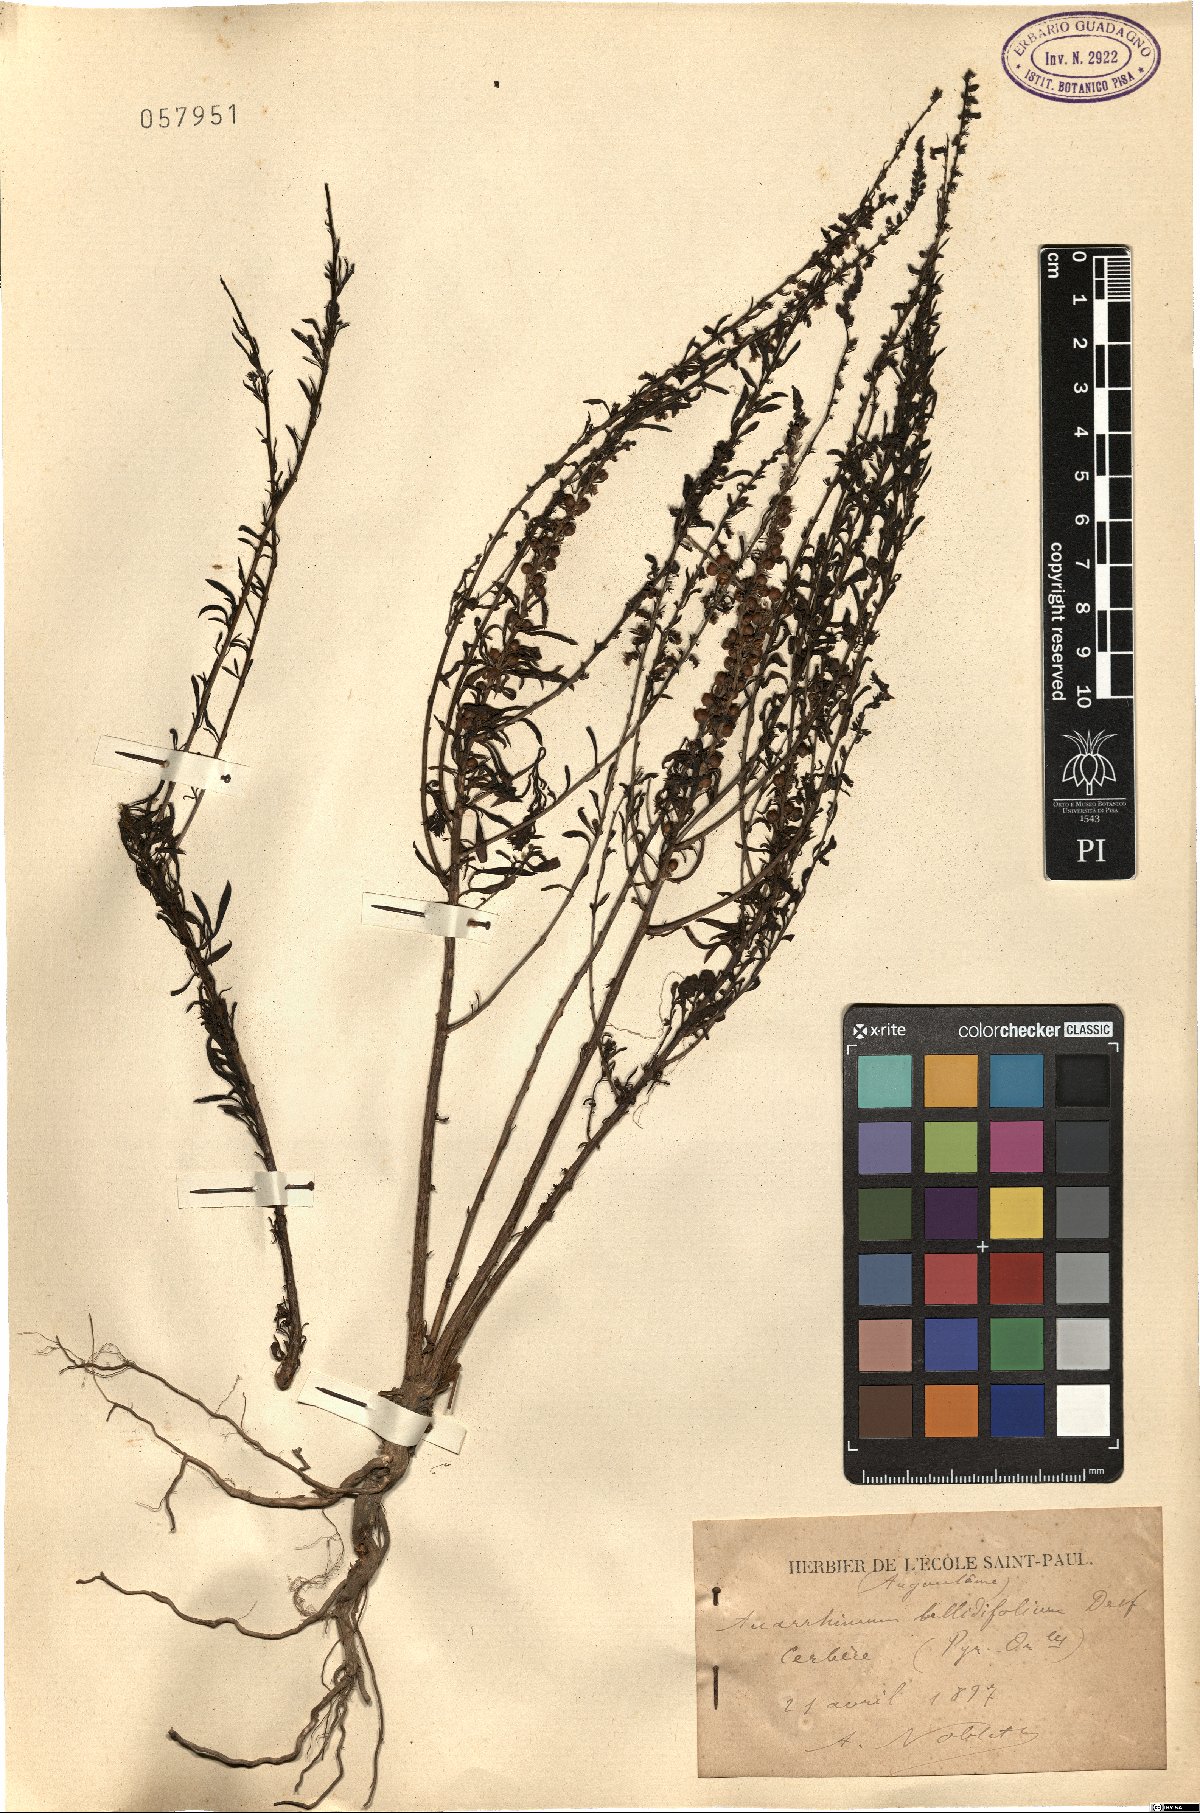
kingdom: Plantae
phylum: Tracheophyta
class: Magnoliopsida
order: Lamiales
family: Plantaginaceae
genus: Anarrhinum
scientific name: Anarrhinum bellidifolium
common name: Daisy-leaved toadflax
